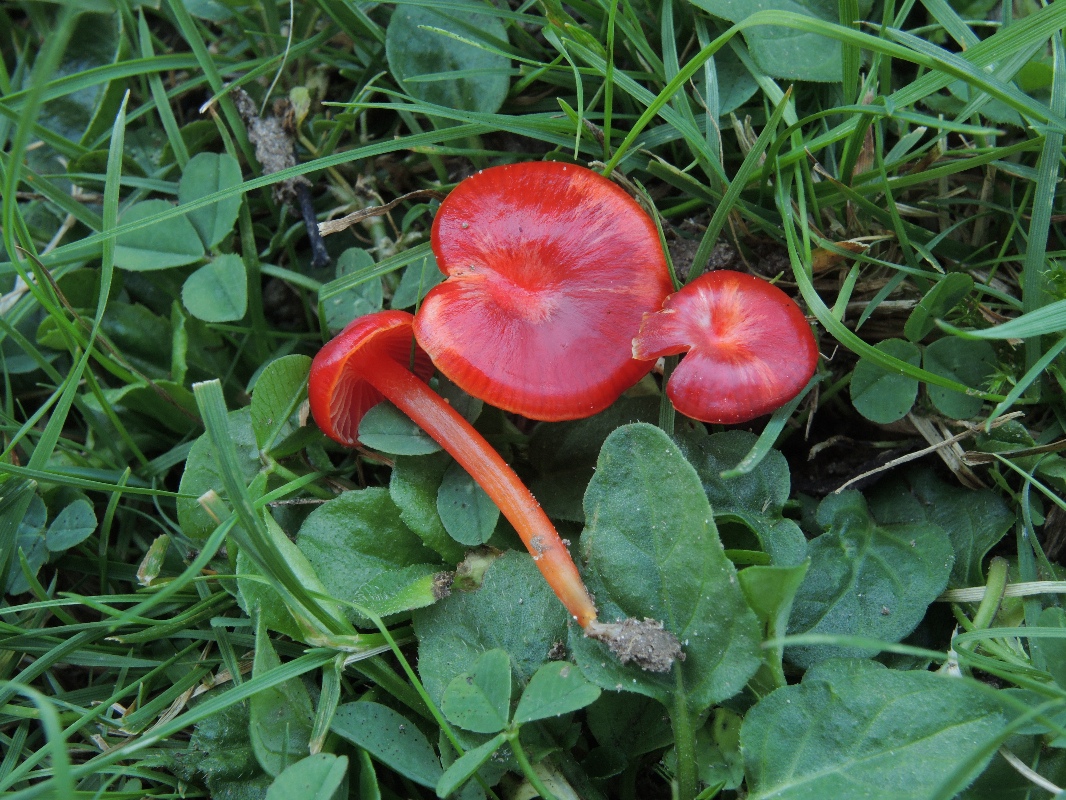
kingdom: Fungi
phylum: Basidiomycota
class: Agaricomycetes
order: Agaricales
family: Hygrophoraceae
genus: Hygrocybe
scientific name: Hygrocybe glutinipes
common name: rubin-vokshat
